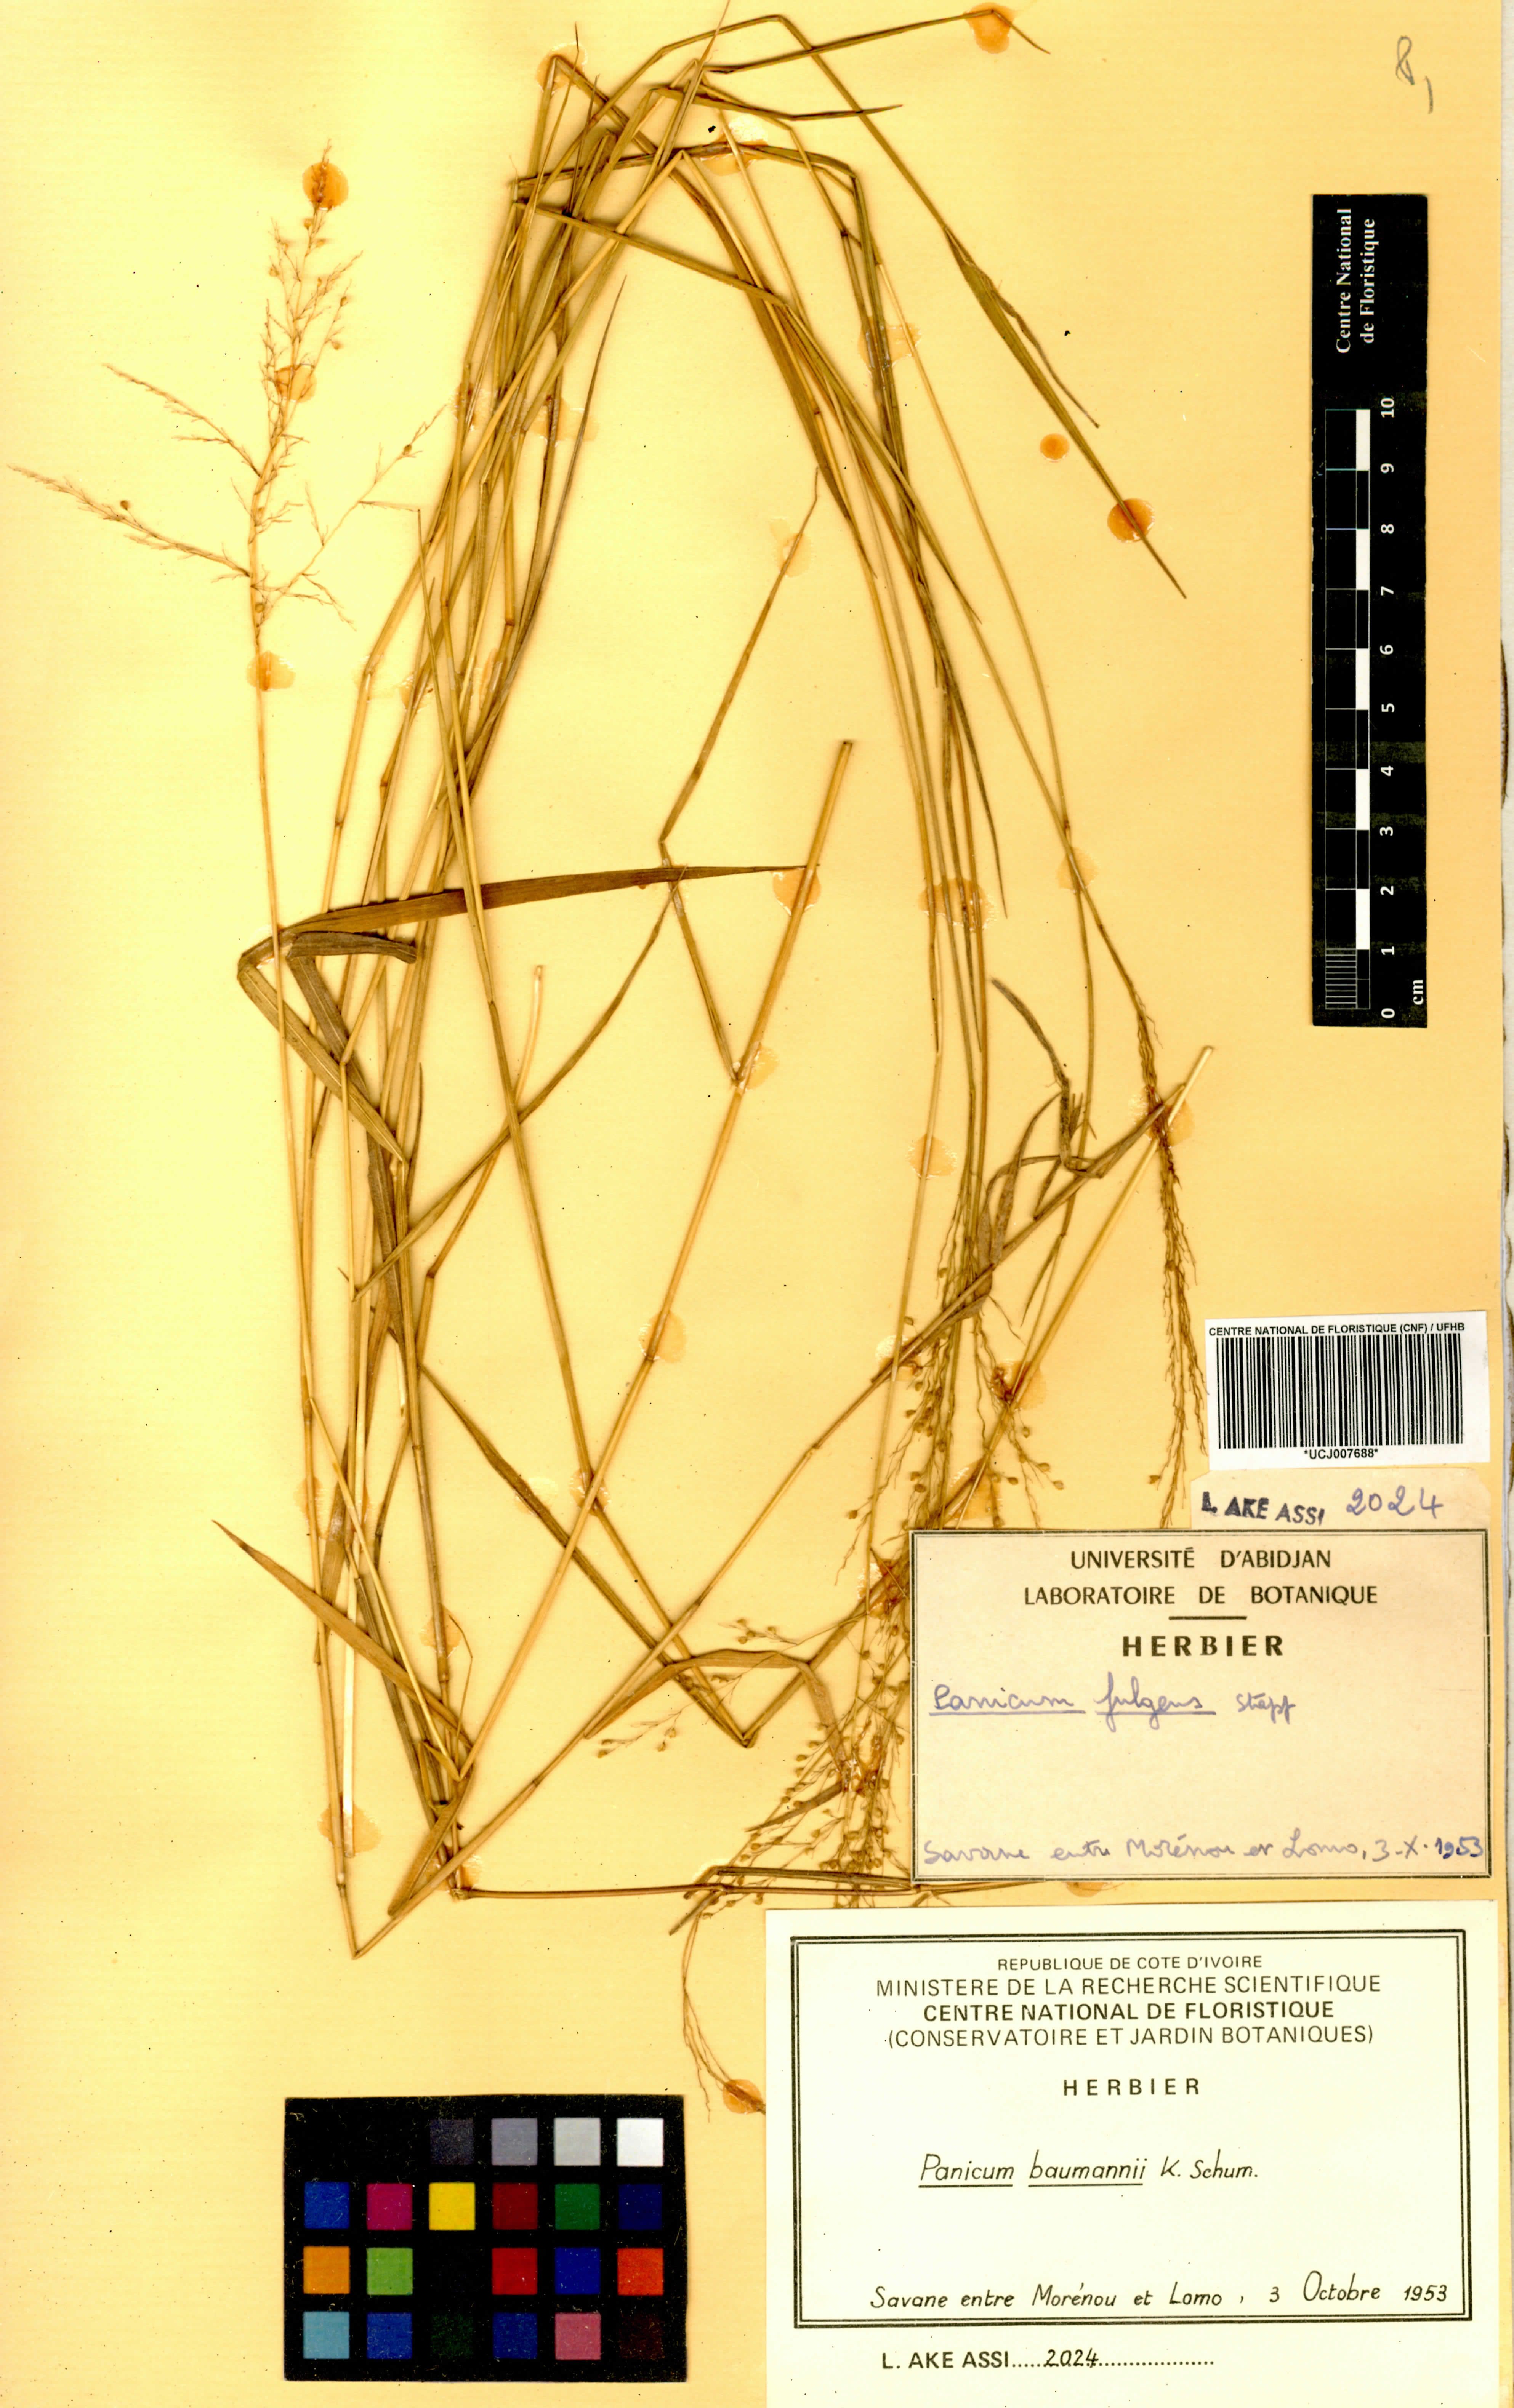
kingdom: Plantae
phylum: Tracheophyta
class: Liliopsida
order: Poales
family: Poaceae
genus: Trichanthecium
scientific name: Trichanthecium nervatum
